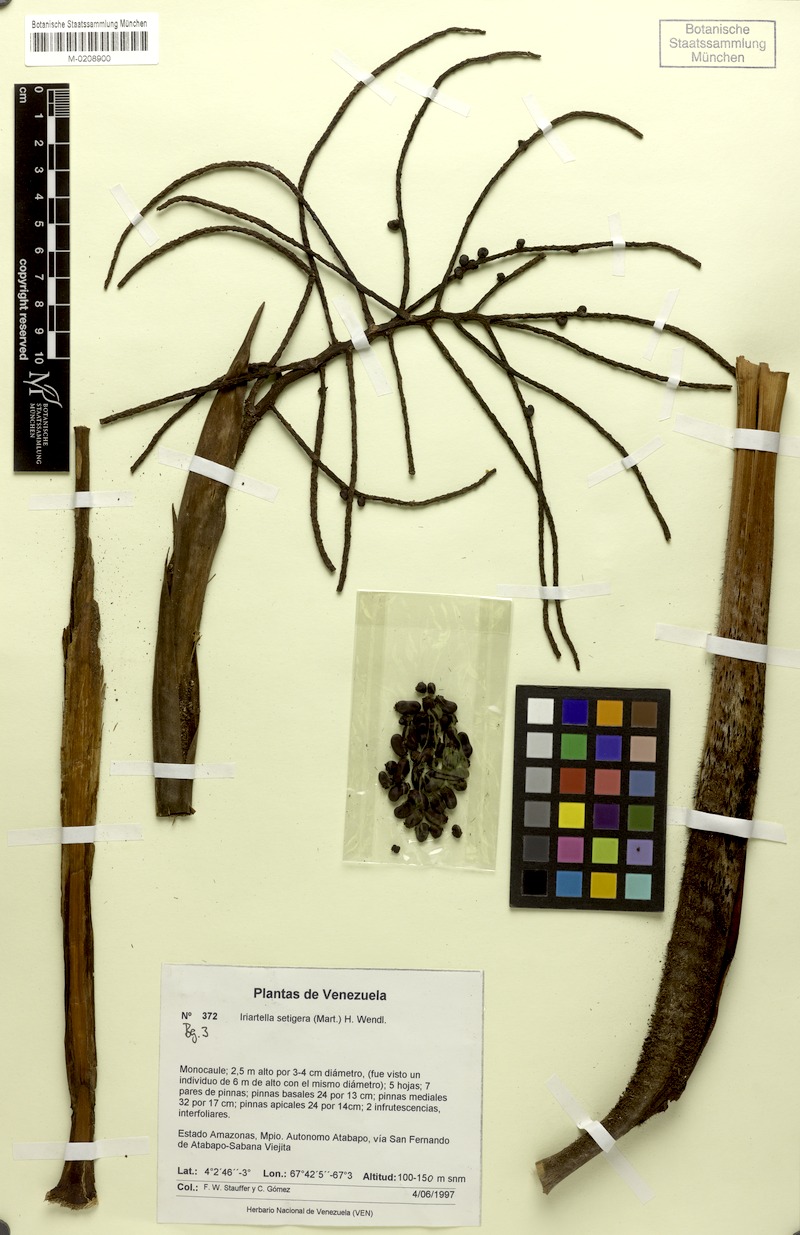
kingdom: Plantae
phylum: Tracheophyta
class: Liliopsida
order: Arecales
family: Arecaceae
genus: Iriartella
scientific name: Iriartella setigera
